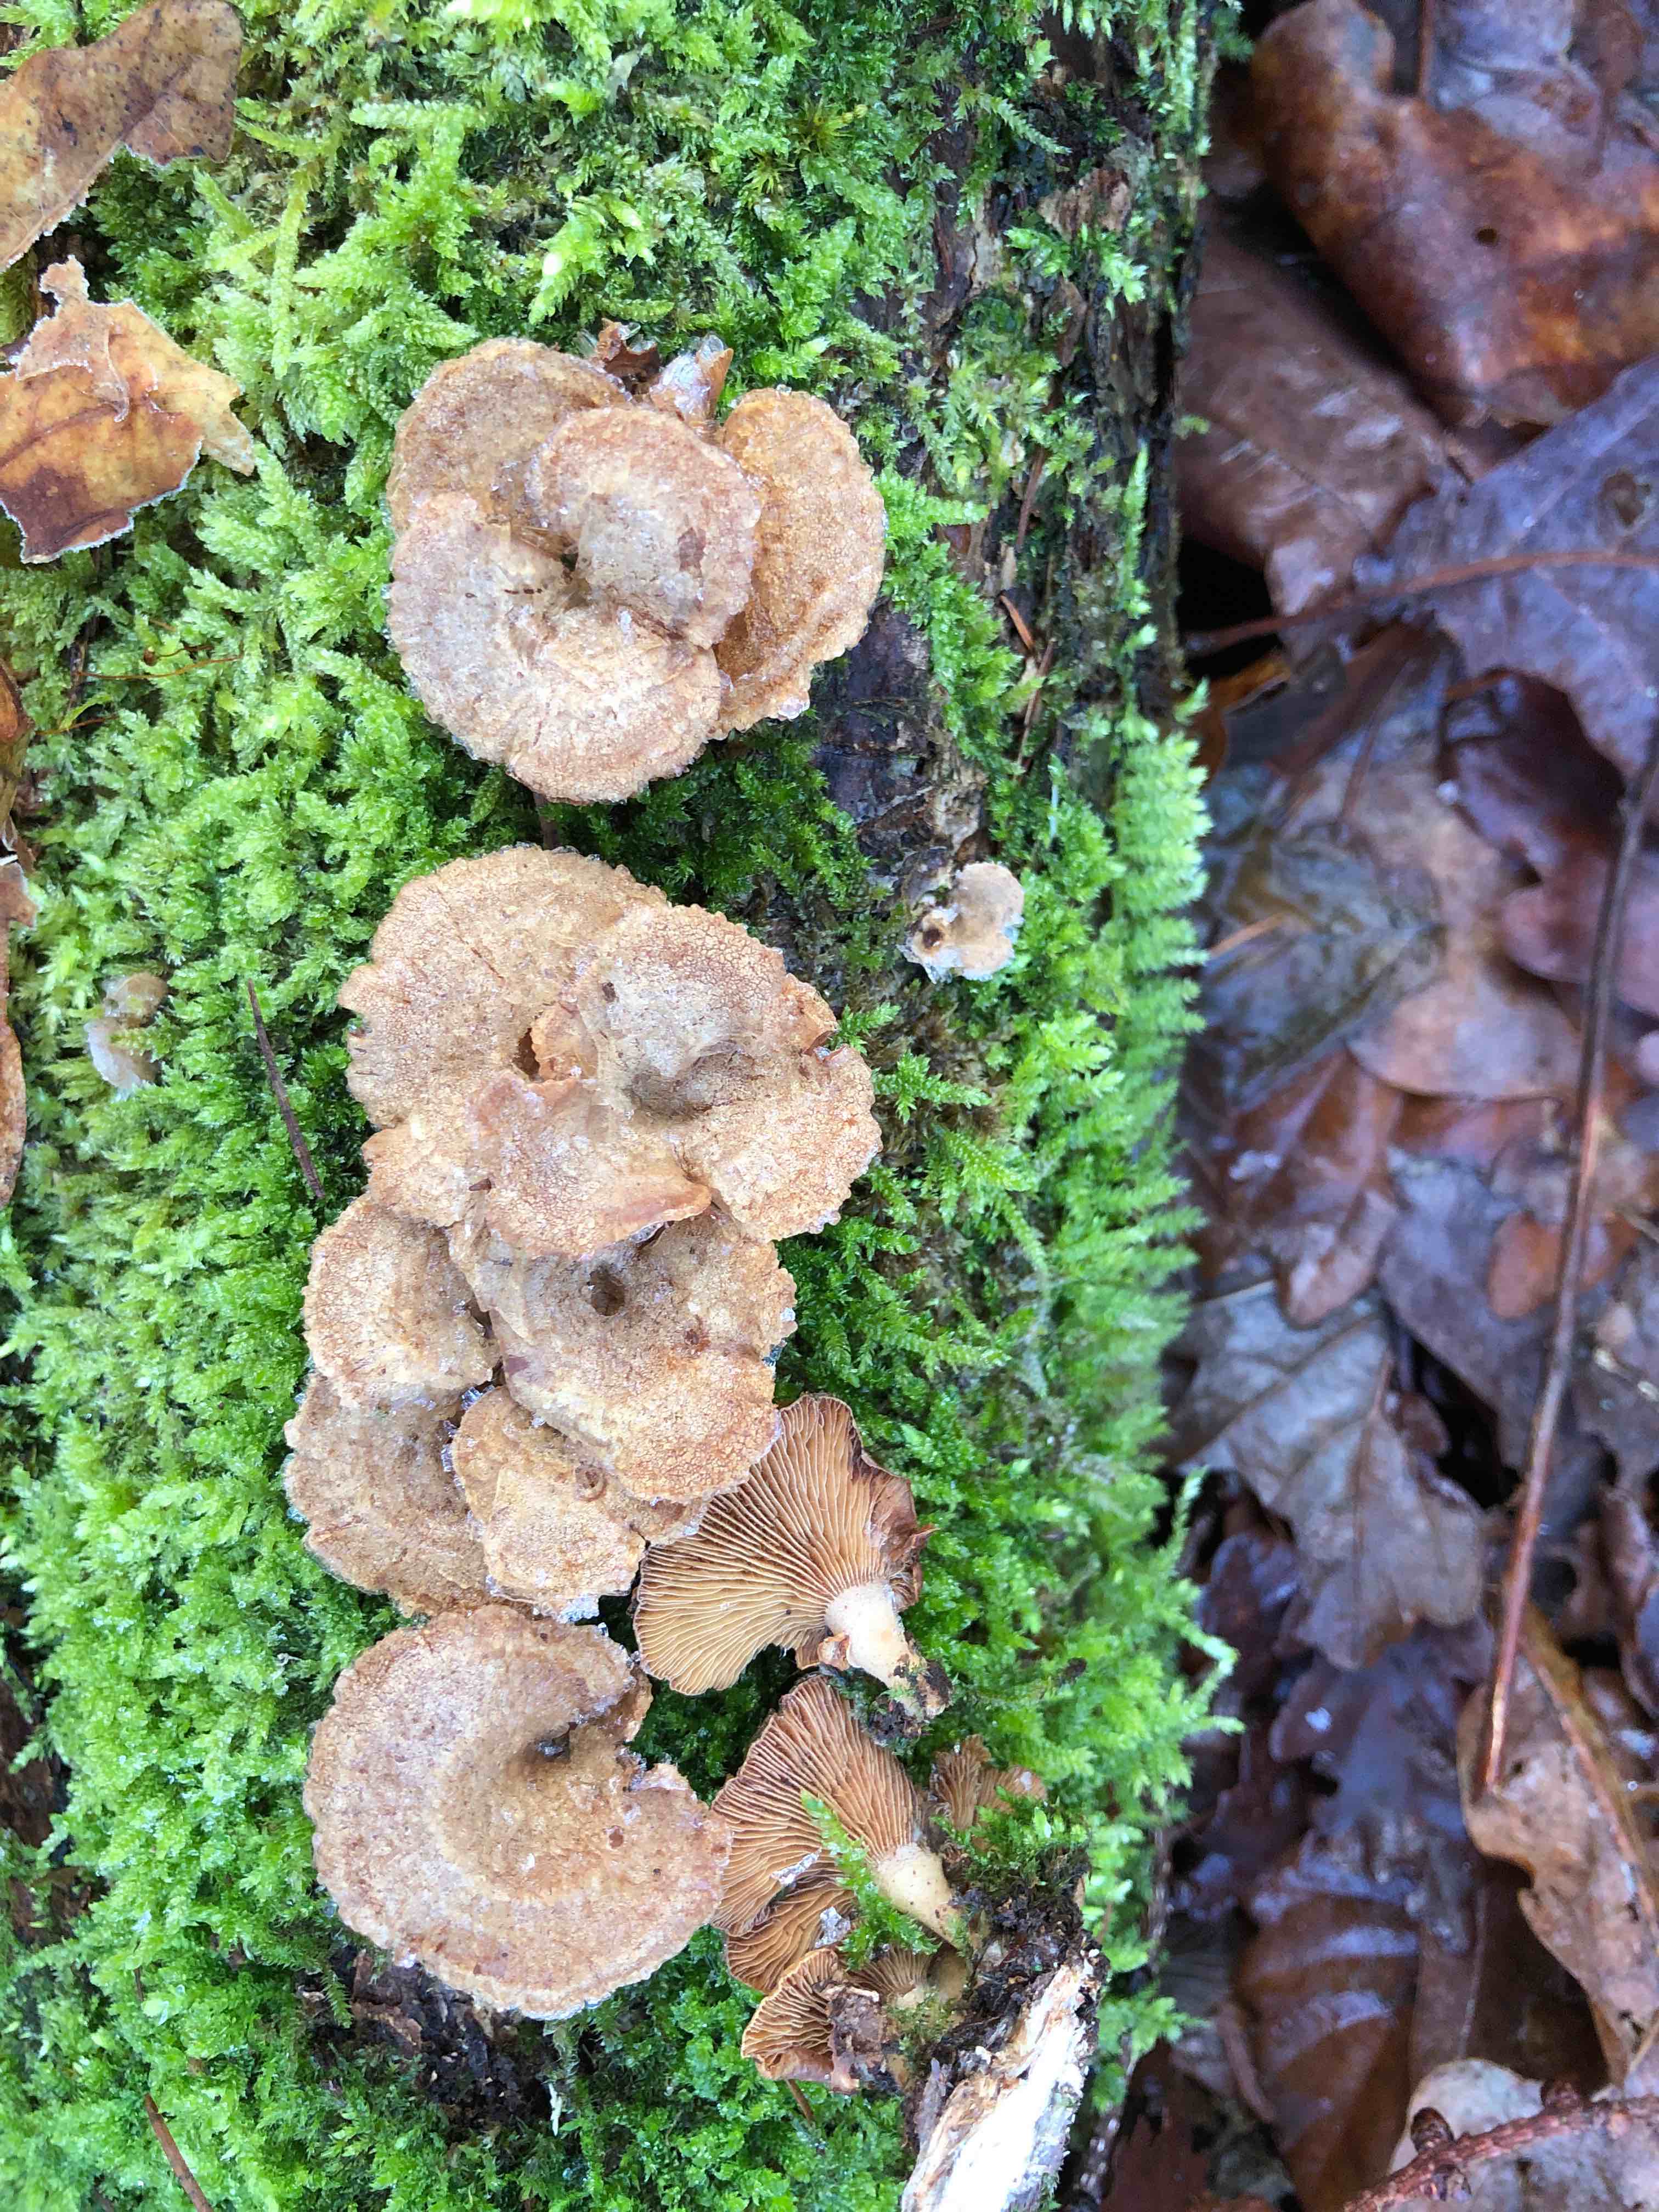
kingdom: Fungi
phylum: Basidiomycota
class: Agaricomycetes
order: Agaricales
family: Mycenaceae
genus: Panellus
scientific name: Panellus stipticus
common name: kliddet epaulethat
